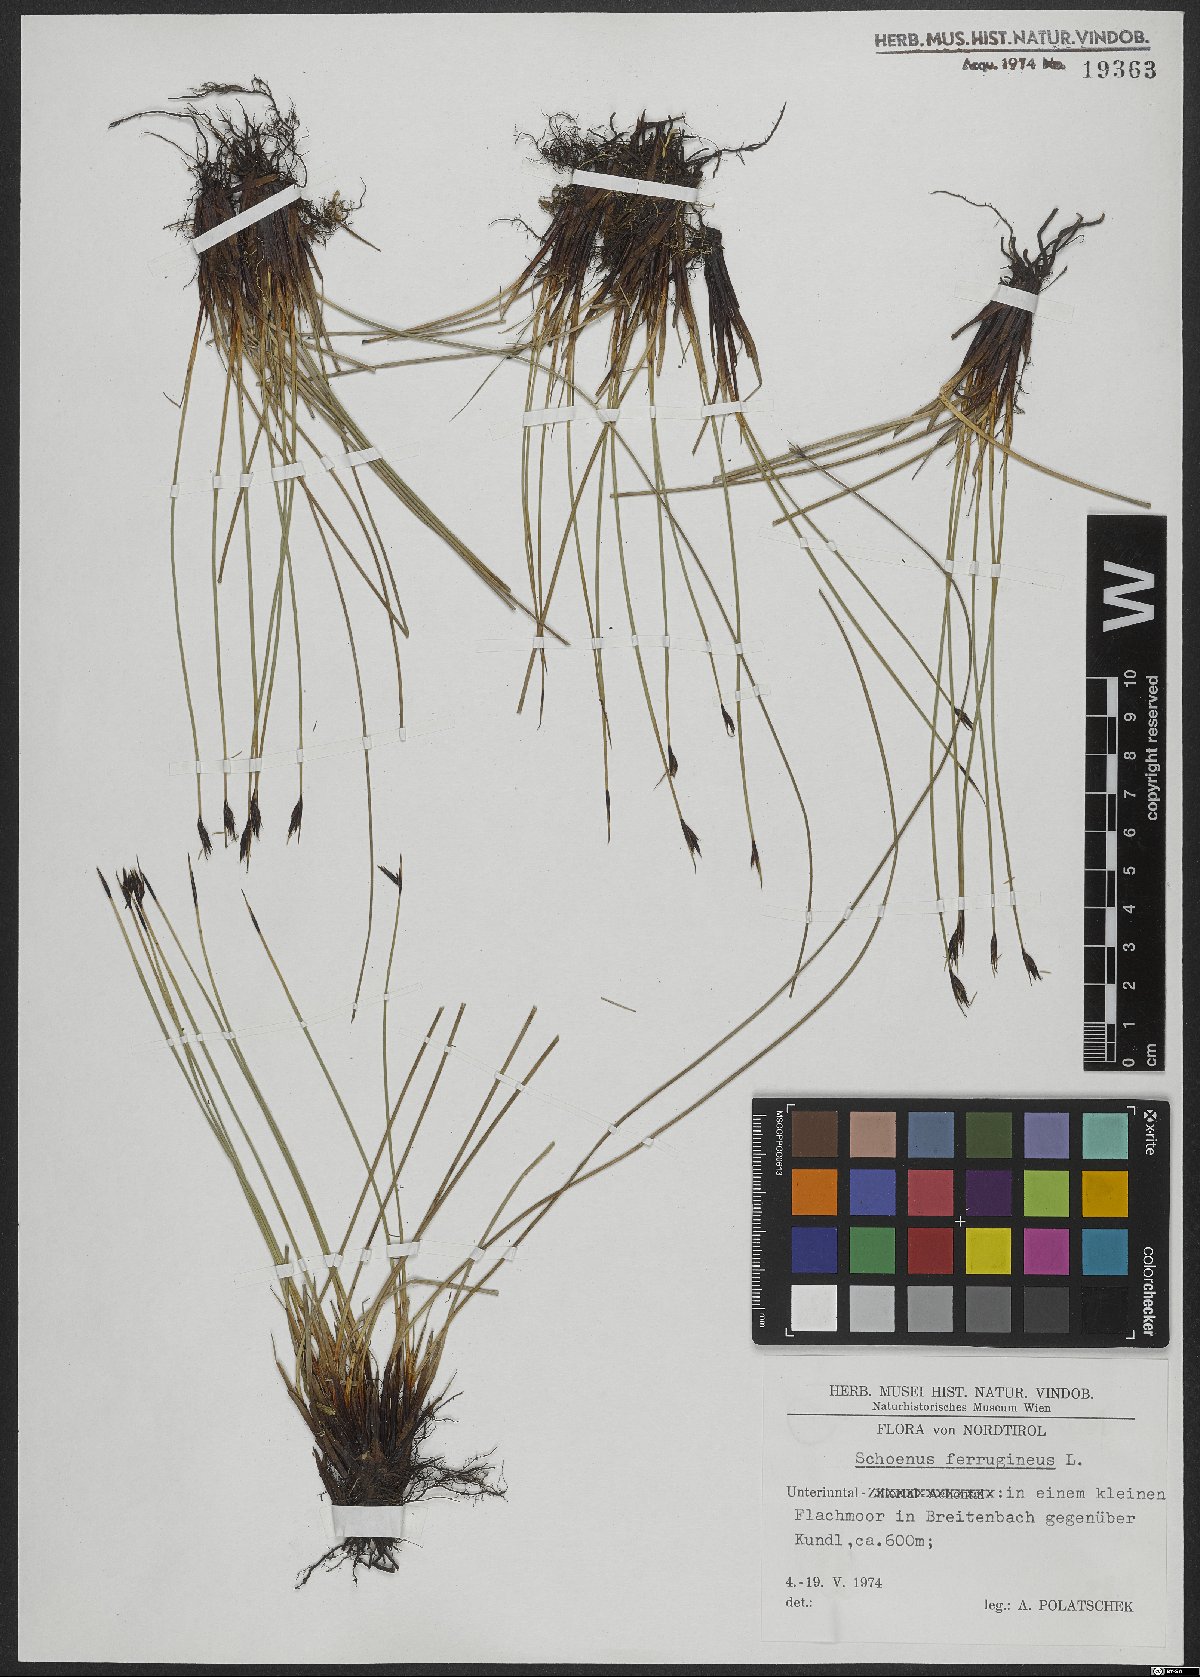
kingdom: Plantae
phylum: Tracheophyta
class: Liliopsida
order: Poales
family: Cyperaceae
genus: Schoenus
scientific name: Schoenus ferrugineus
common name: Brown bog-rush
